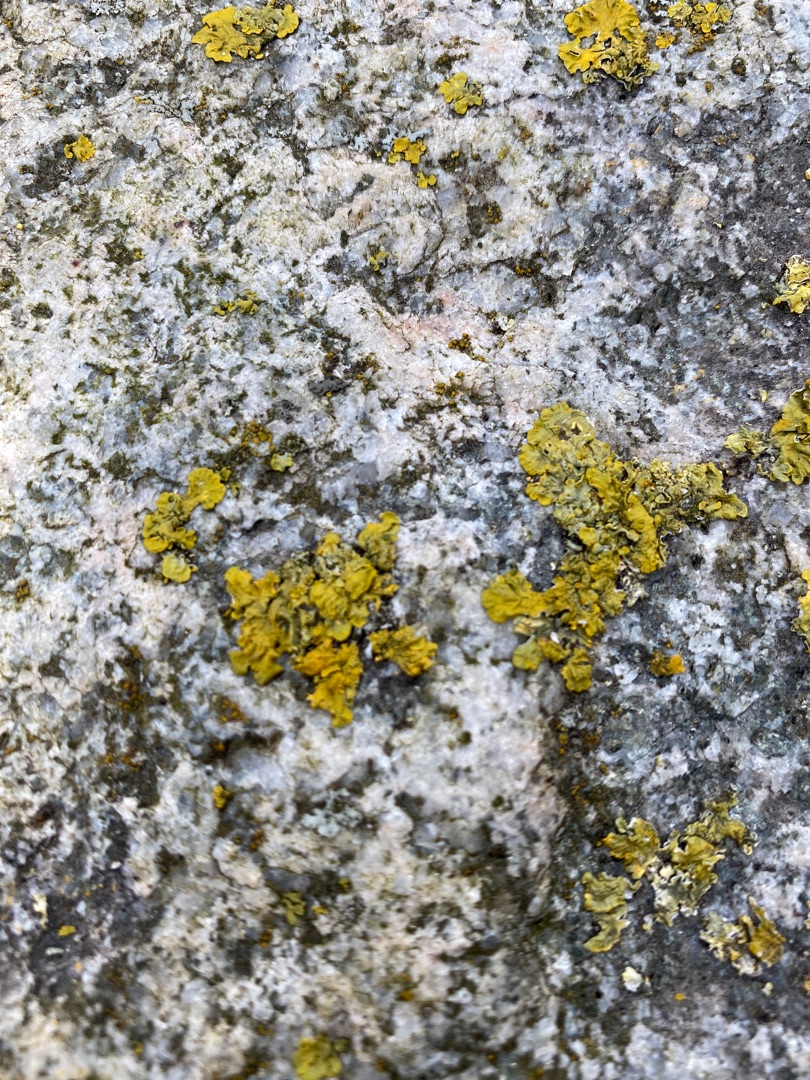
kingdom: Fungi
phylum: Ascomycota
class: Lecanoromycetes
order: Teloschistales
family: Teloschistaceae
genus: Xanthoria
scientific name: Xanthoria parietina
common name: Almindelig væggelav
